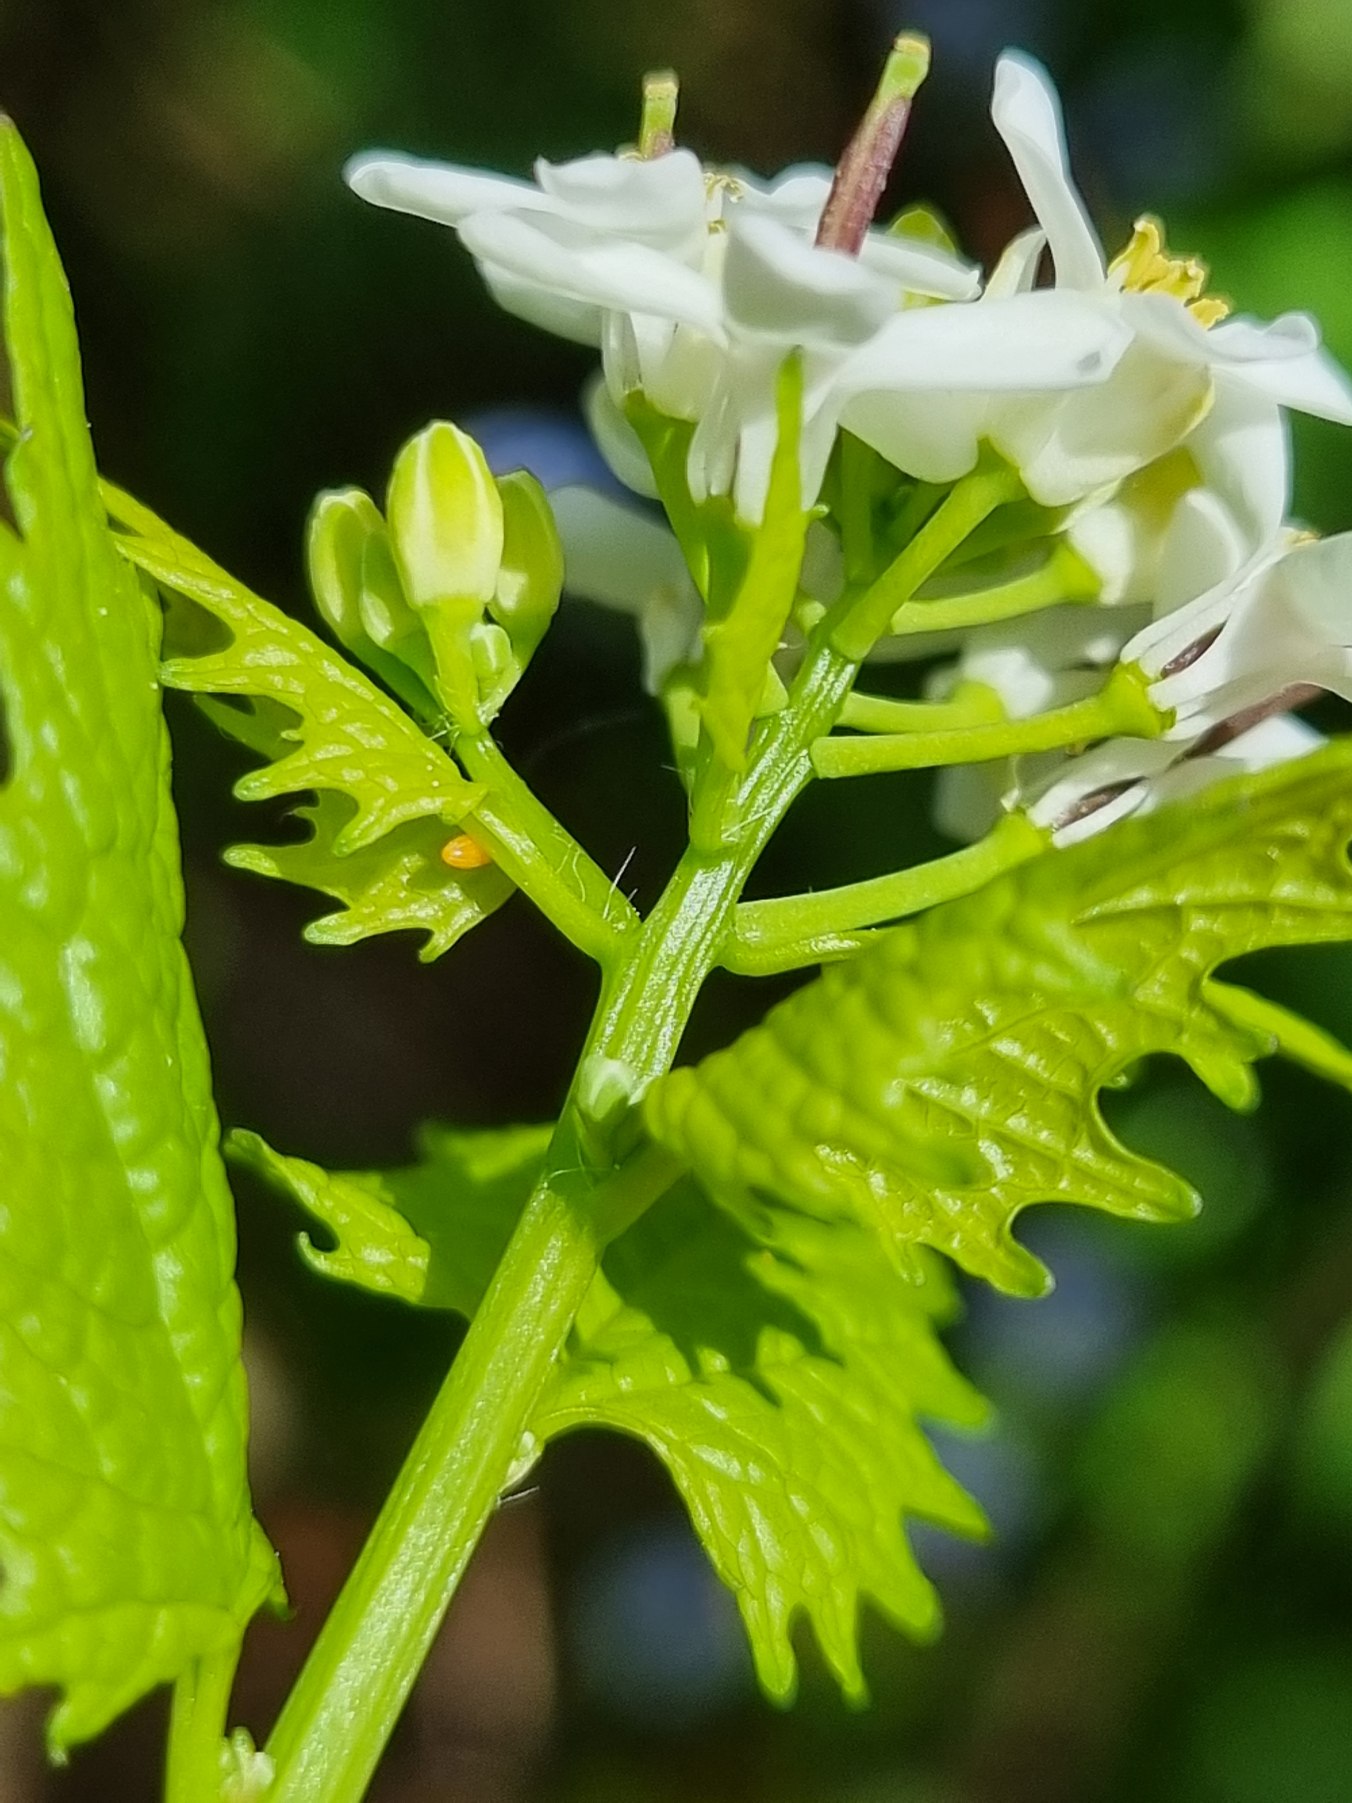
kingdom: Animalia
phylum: Arthropoda
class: Insecta
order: Lepidoptera
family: Pieridae
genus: Anthocharis
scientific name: Anthocharis cardamines
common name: Aurora
